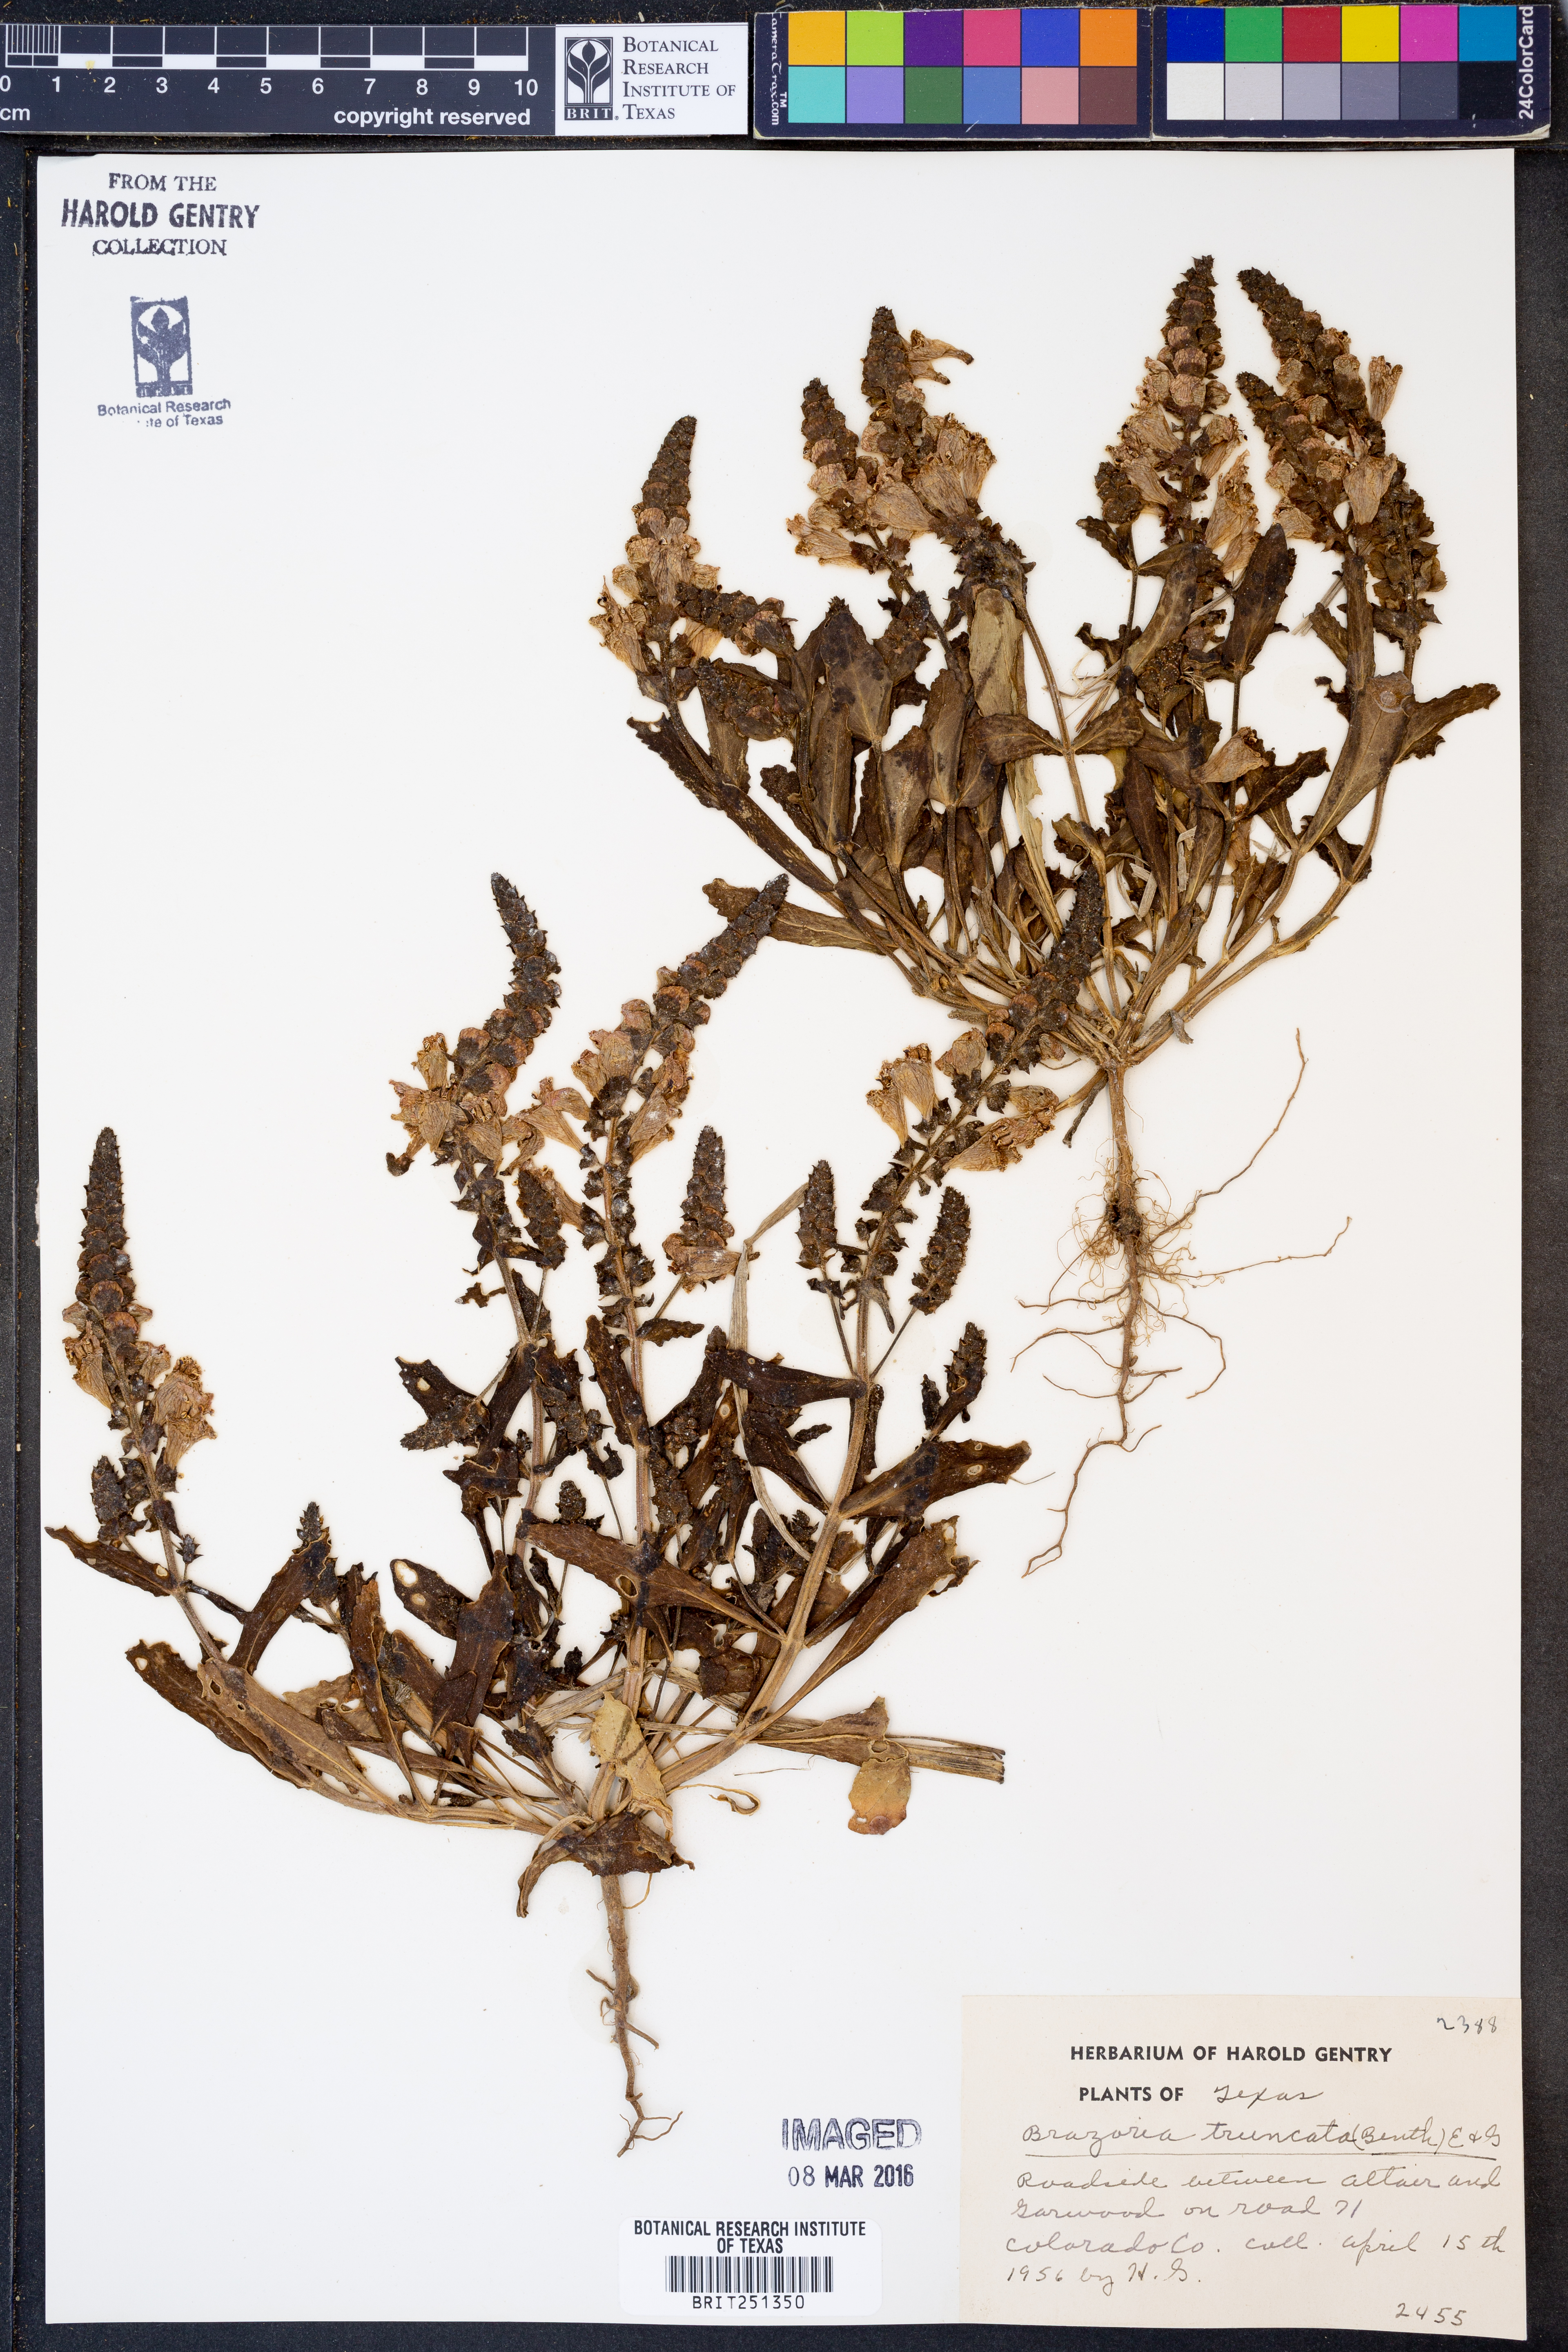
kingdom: Plantae
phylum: Tracheophyta
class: Magnoliopsida
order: Lamiales
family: Lamiaceae
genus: Brazoria
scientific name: Brazoria truncata
